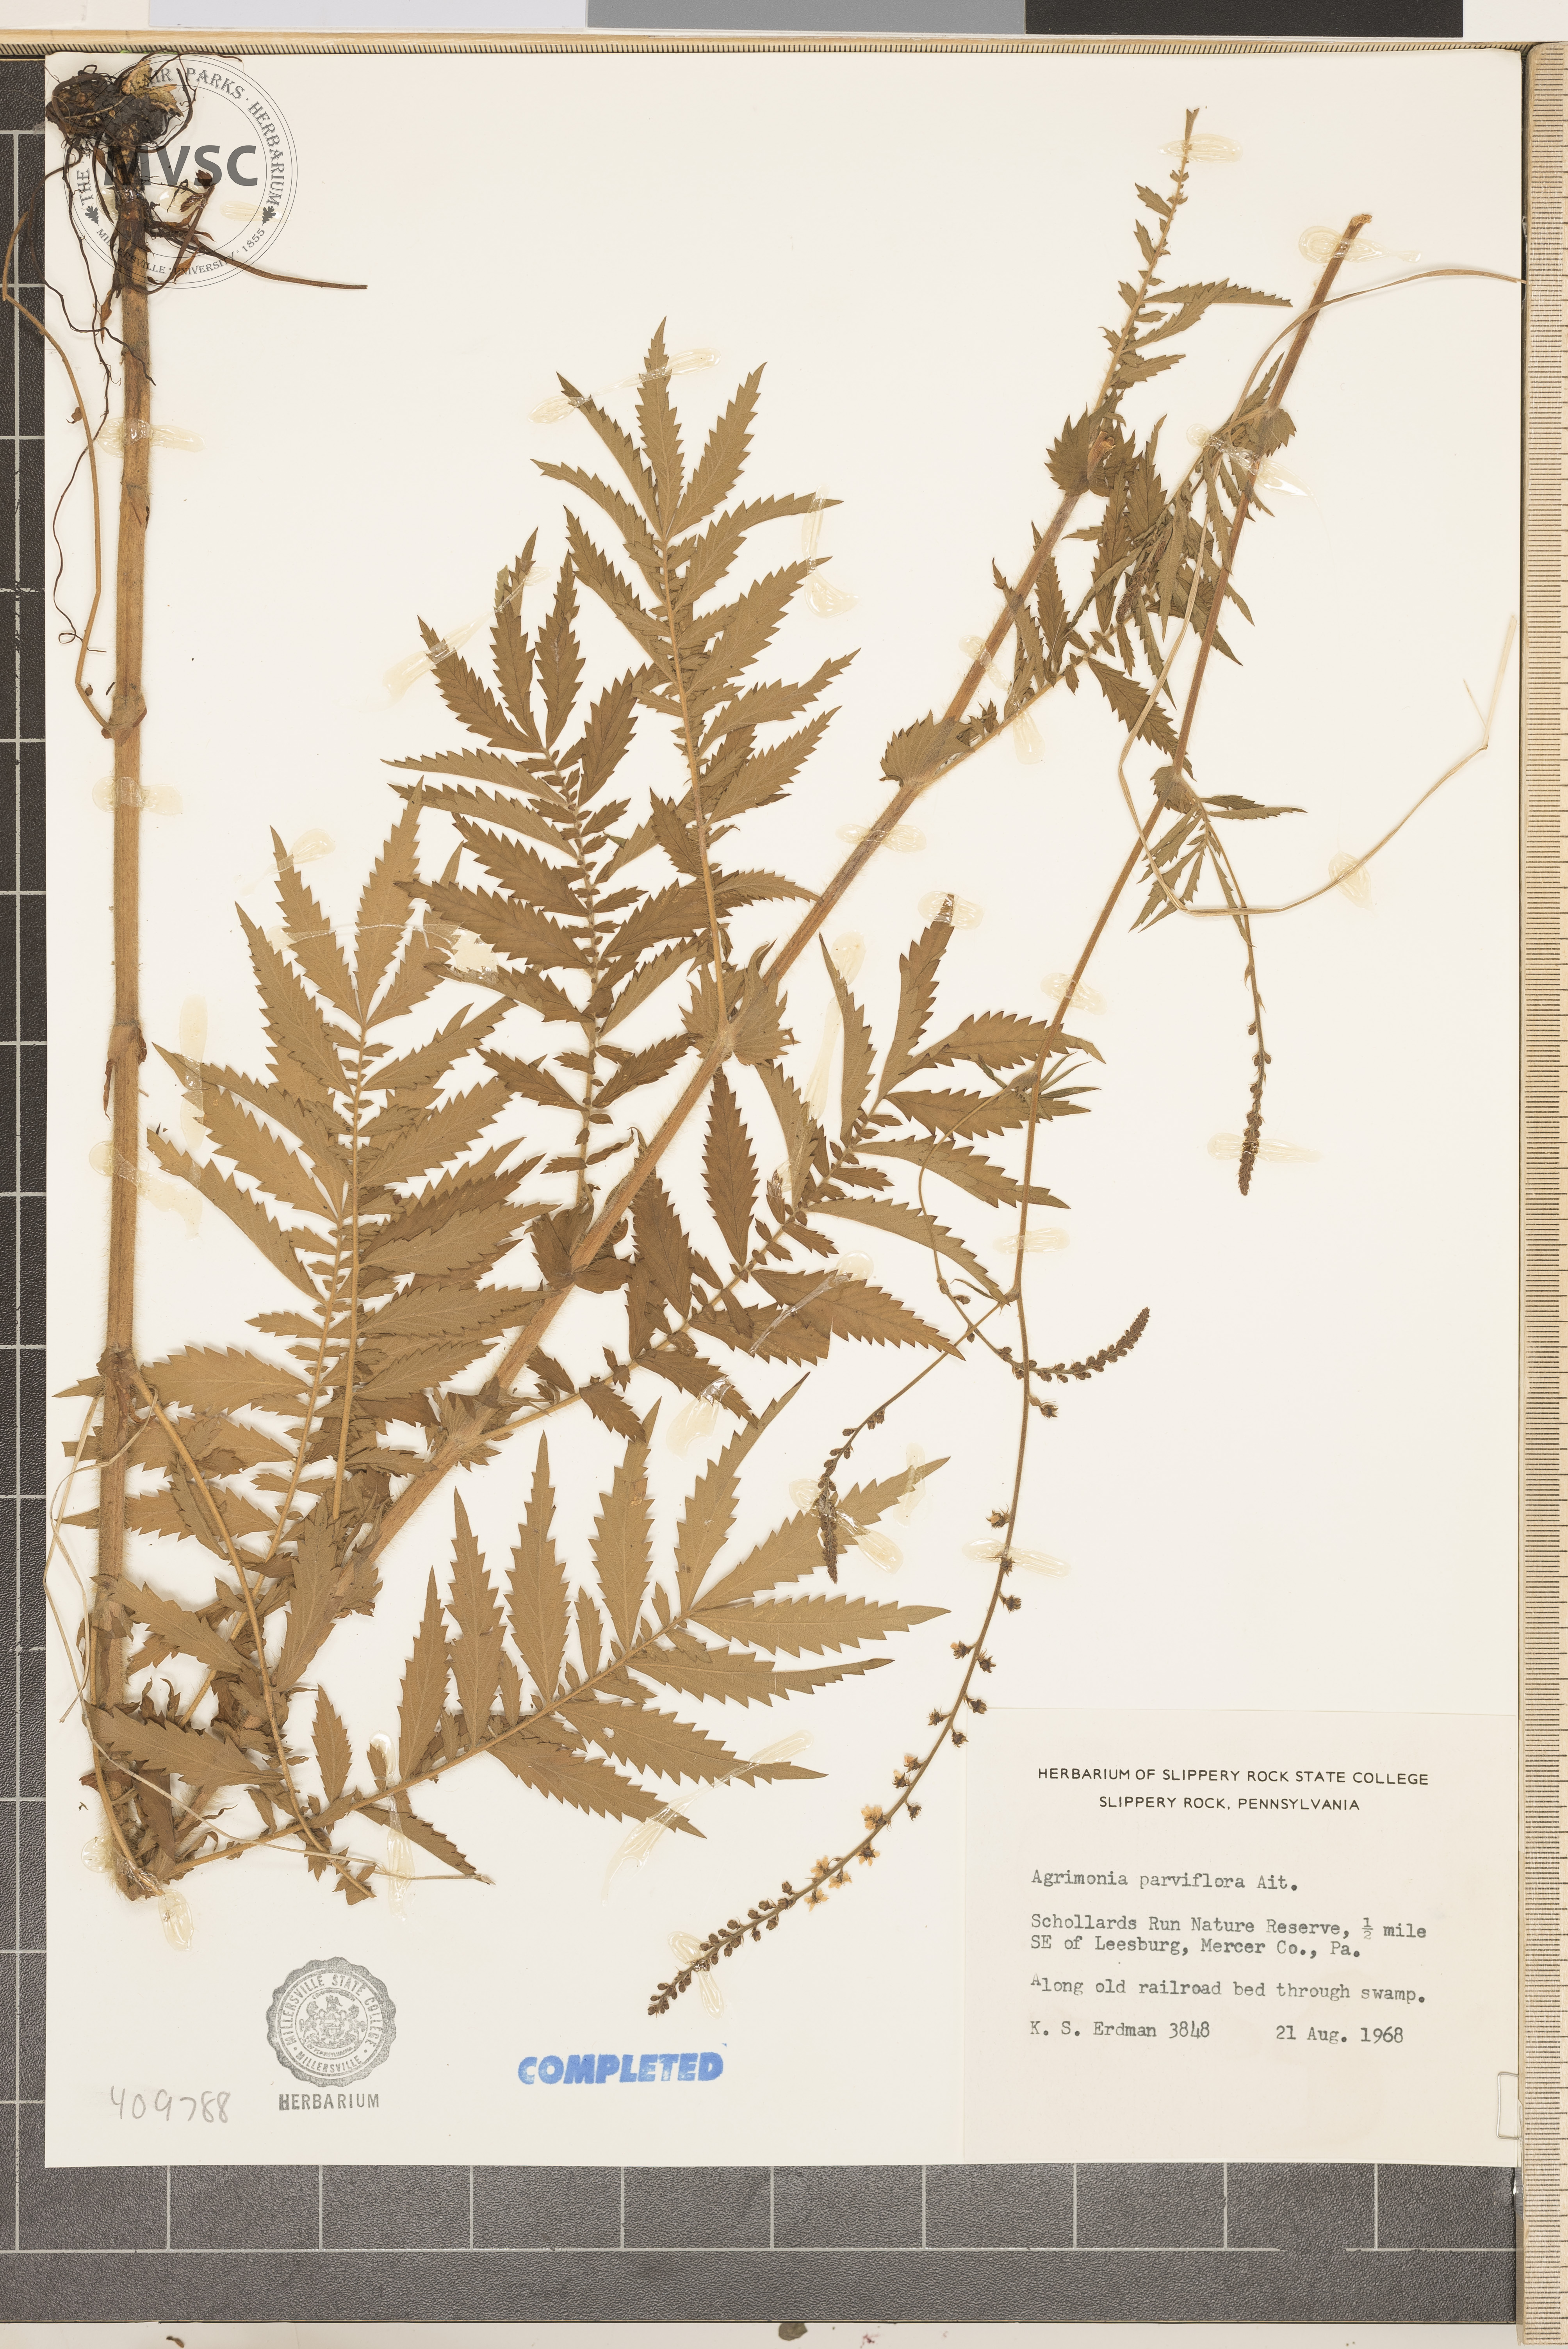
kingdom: Plantae
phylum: Tracheophyta
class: Magnoliopsida
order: Rosales
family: Rosaceae
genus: Agrimonia
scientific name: Agrimonia parviflora
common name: Harvest-lice
